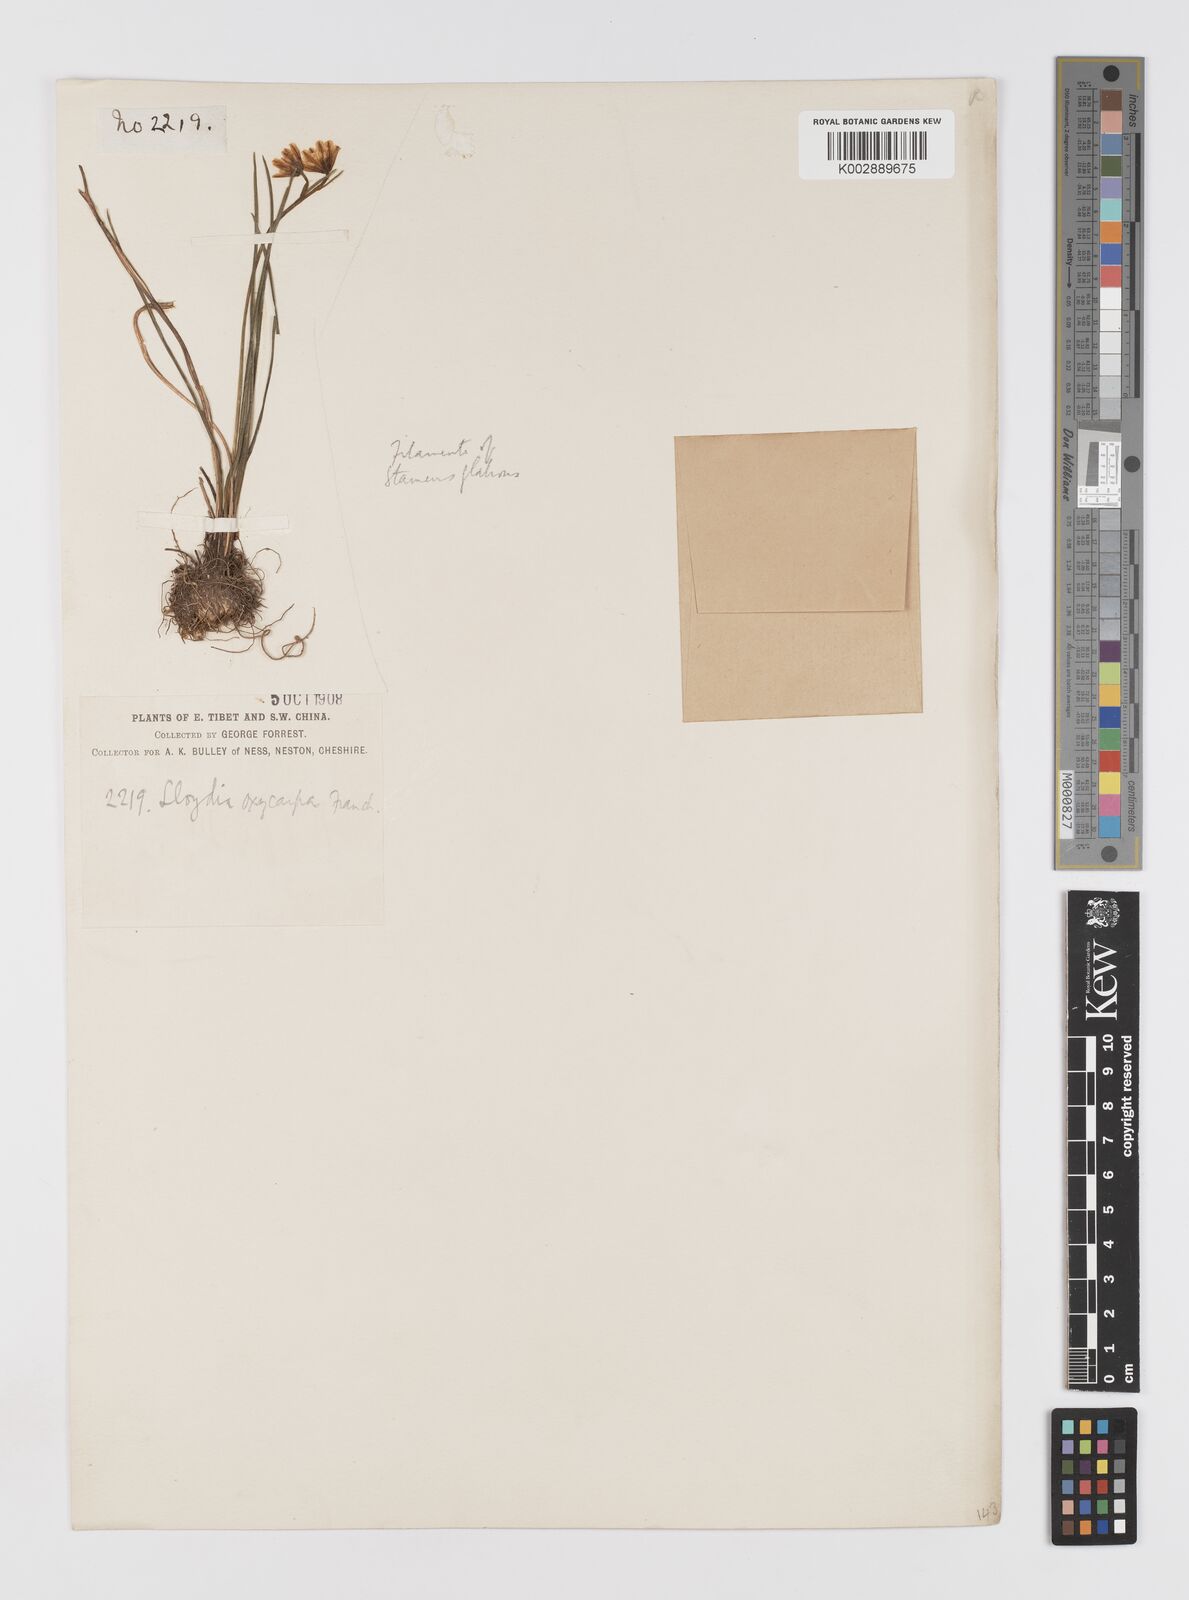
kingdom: Plantae
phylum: Tracheophyta
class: Liliopsida
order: Liliales
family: Liliaceae
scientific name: Liliaceae
